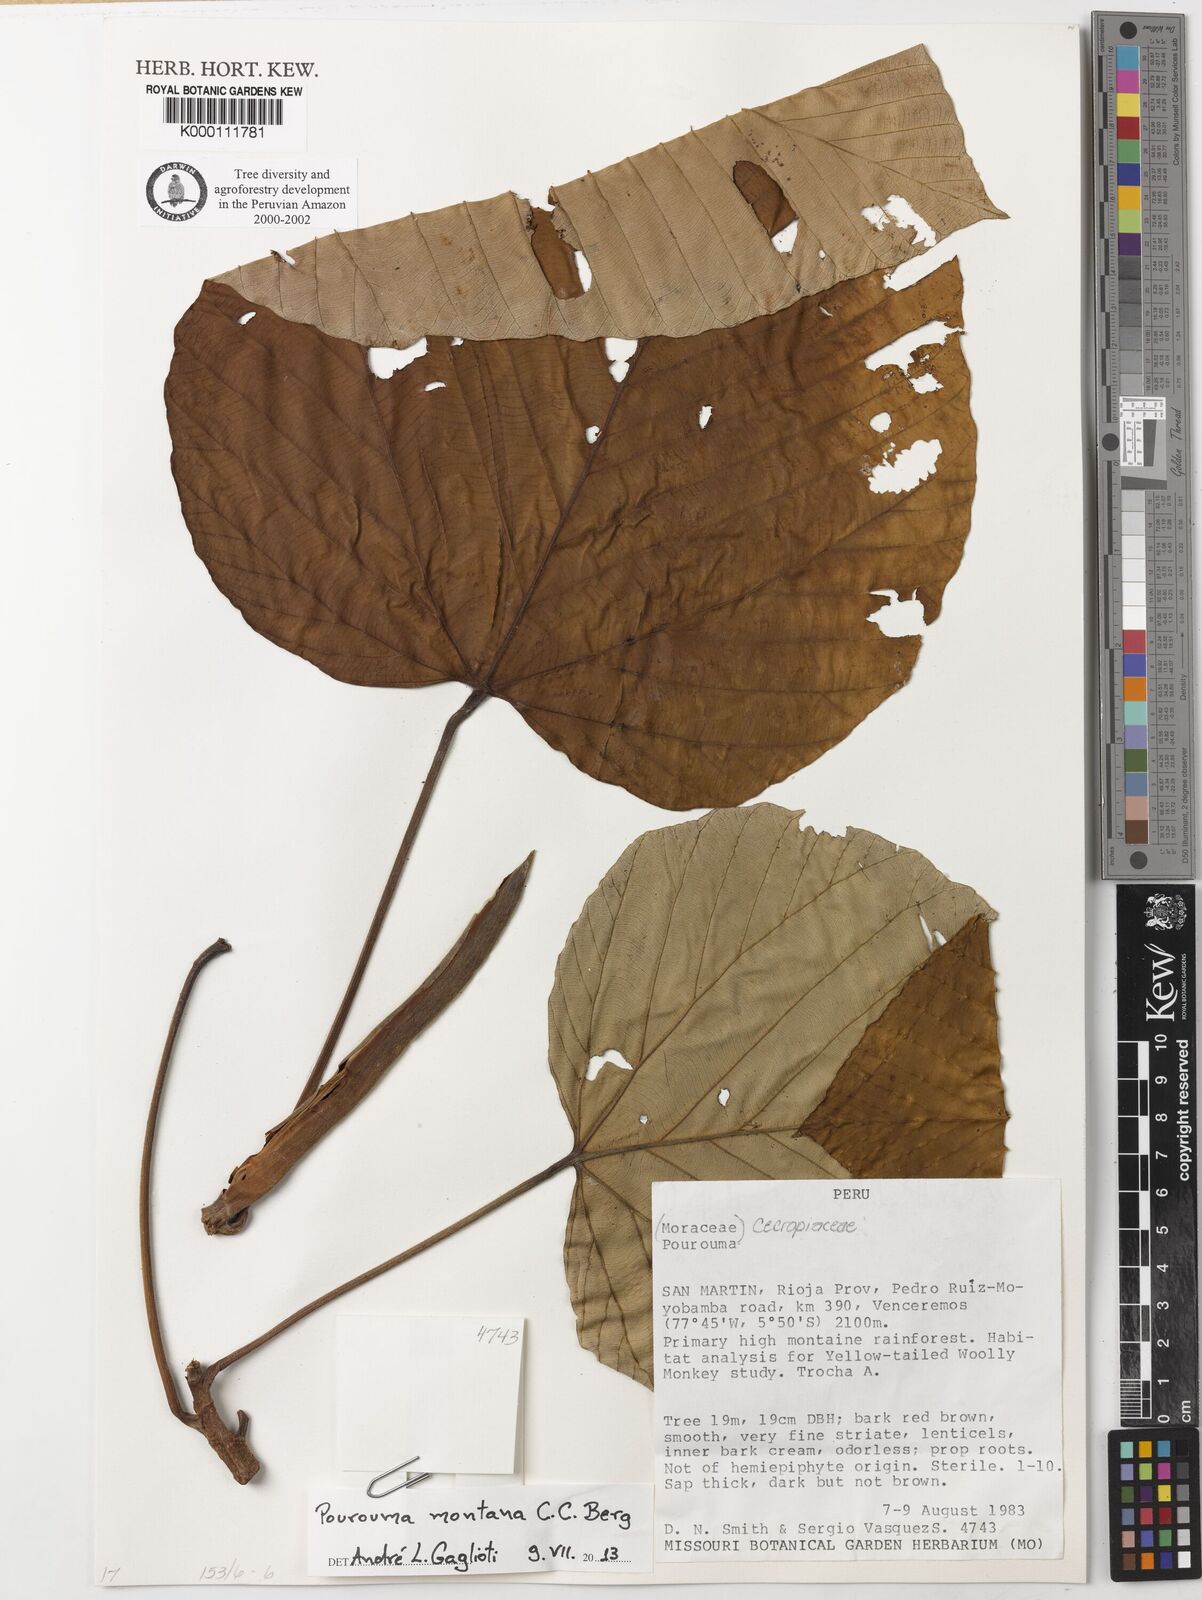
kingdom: Plantae
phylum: Tracheophyta
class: Magnoliopsida
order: Rosales
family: Urticaceae
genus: Pourouma
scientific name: Pourouma montana
